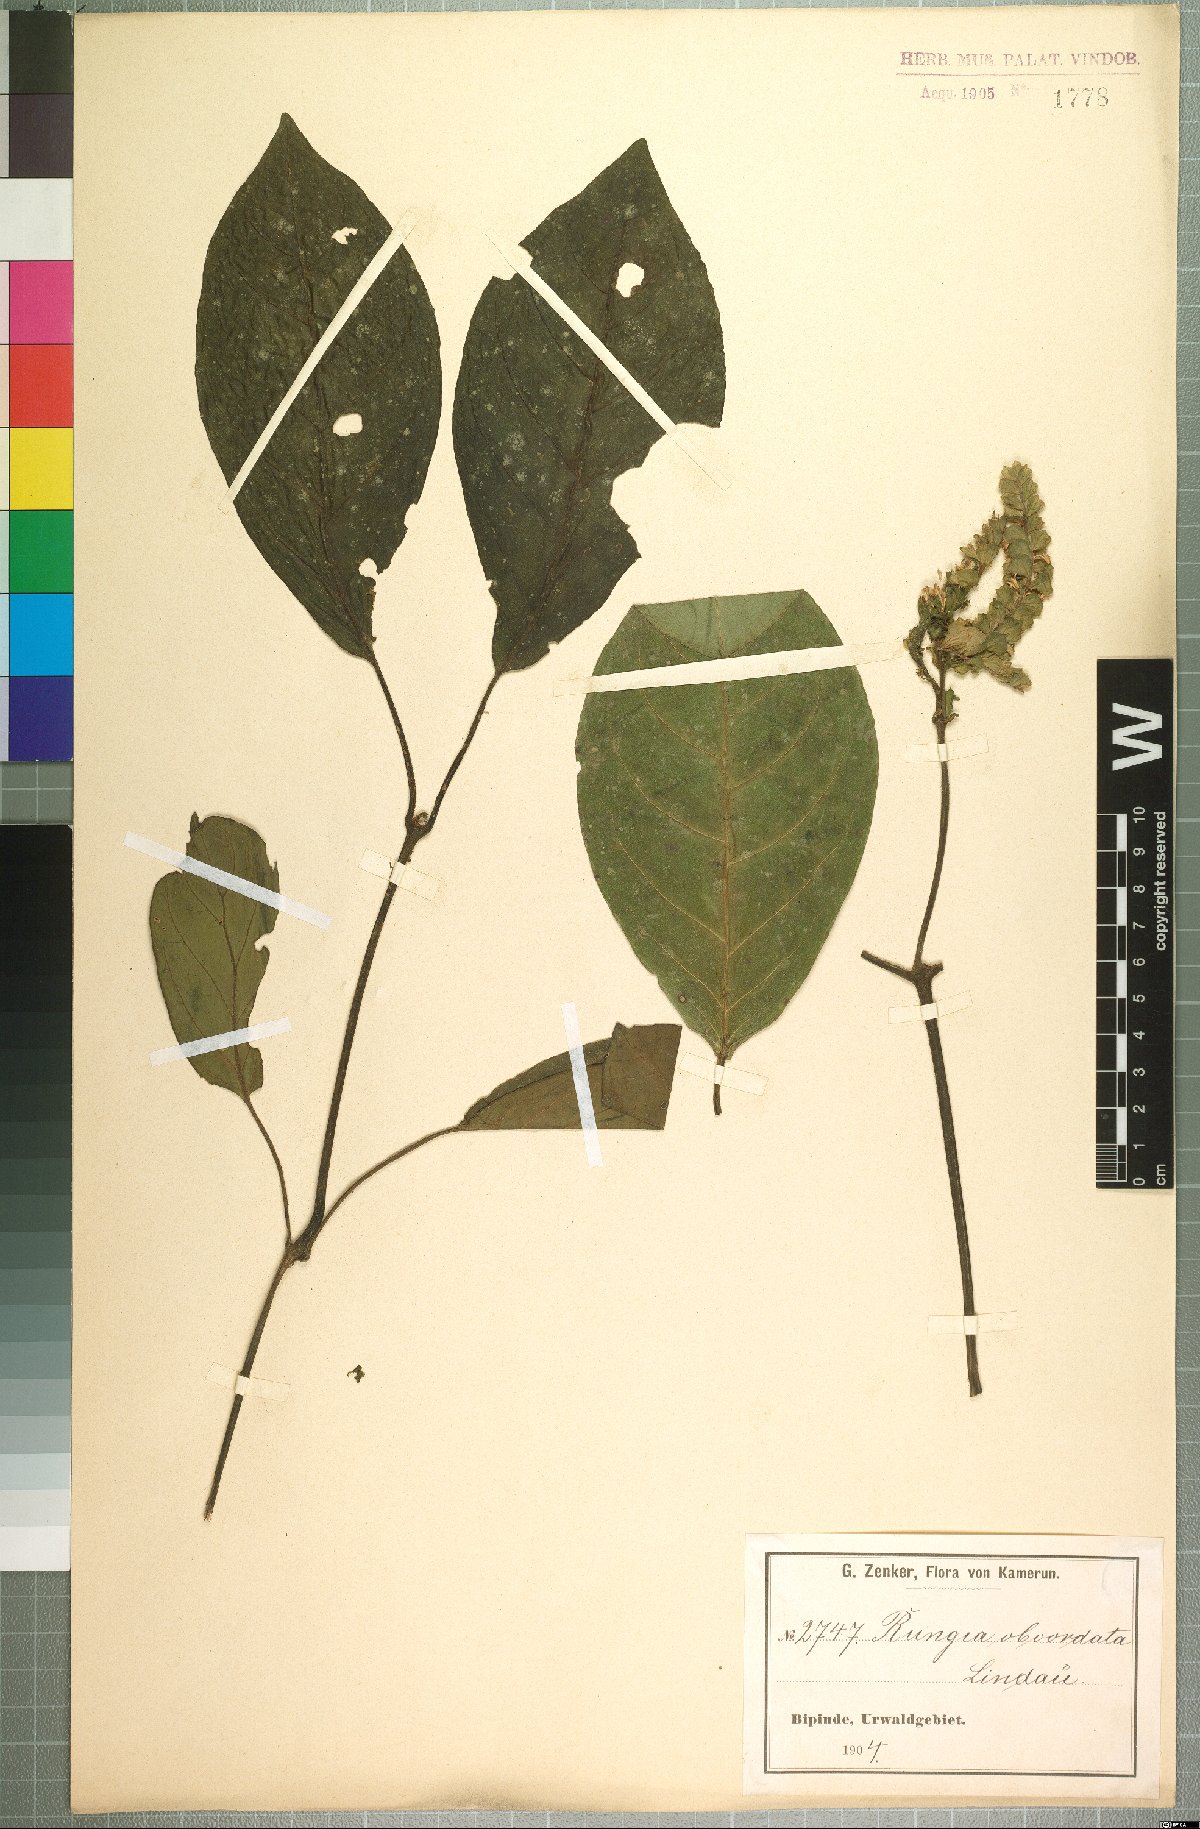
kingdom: Plantae
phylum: Tracheophyta
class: Magnoliopsida
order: Lamiales
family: Acanthaceae
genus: Ascotheca
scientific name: Ascotheca paucinervia
